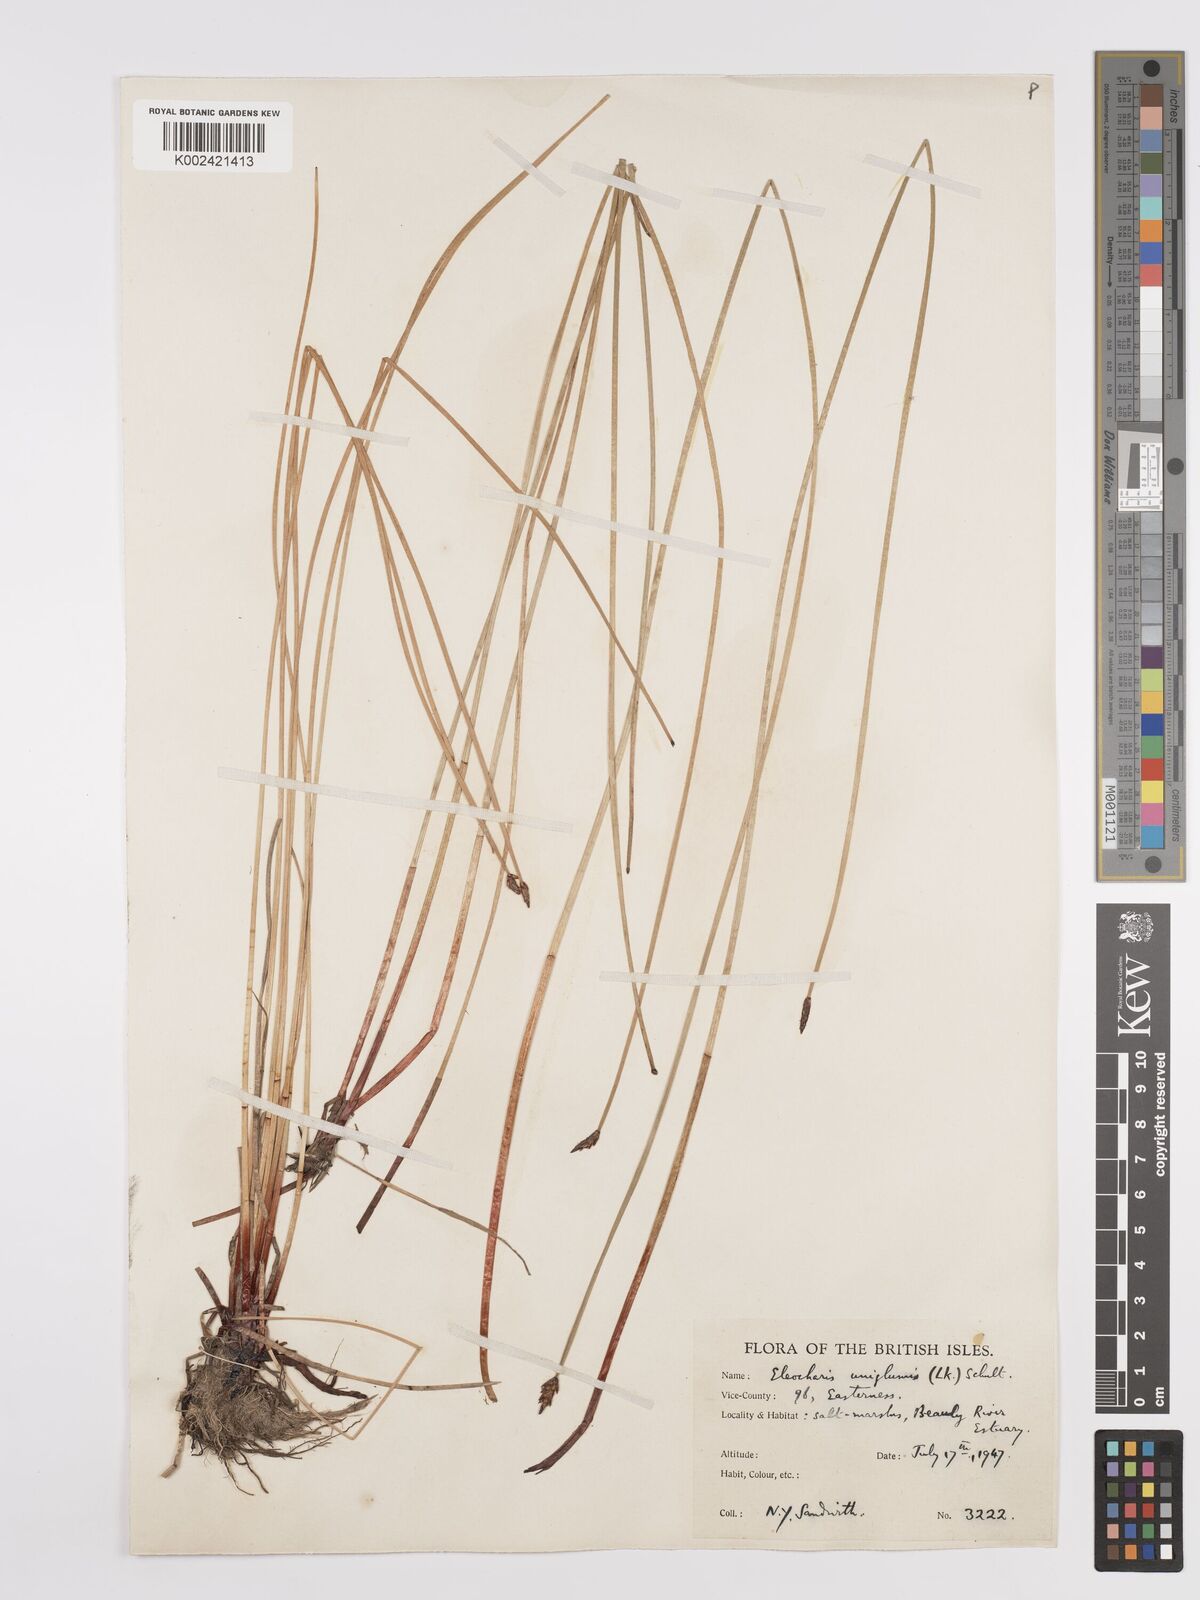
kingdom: Plantae
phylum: Tracheophyta
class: Liliopsida
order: Poales
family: Cyperaceae
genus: Eleocharis
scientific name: Eleocharis uniglumis
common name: Slender spike-rush
